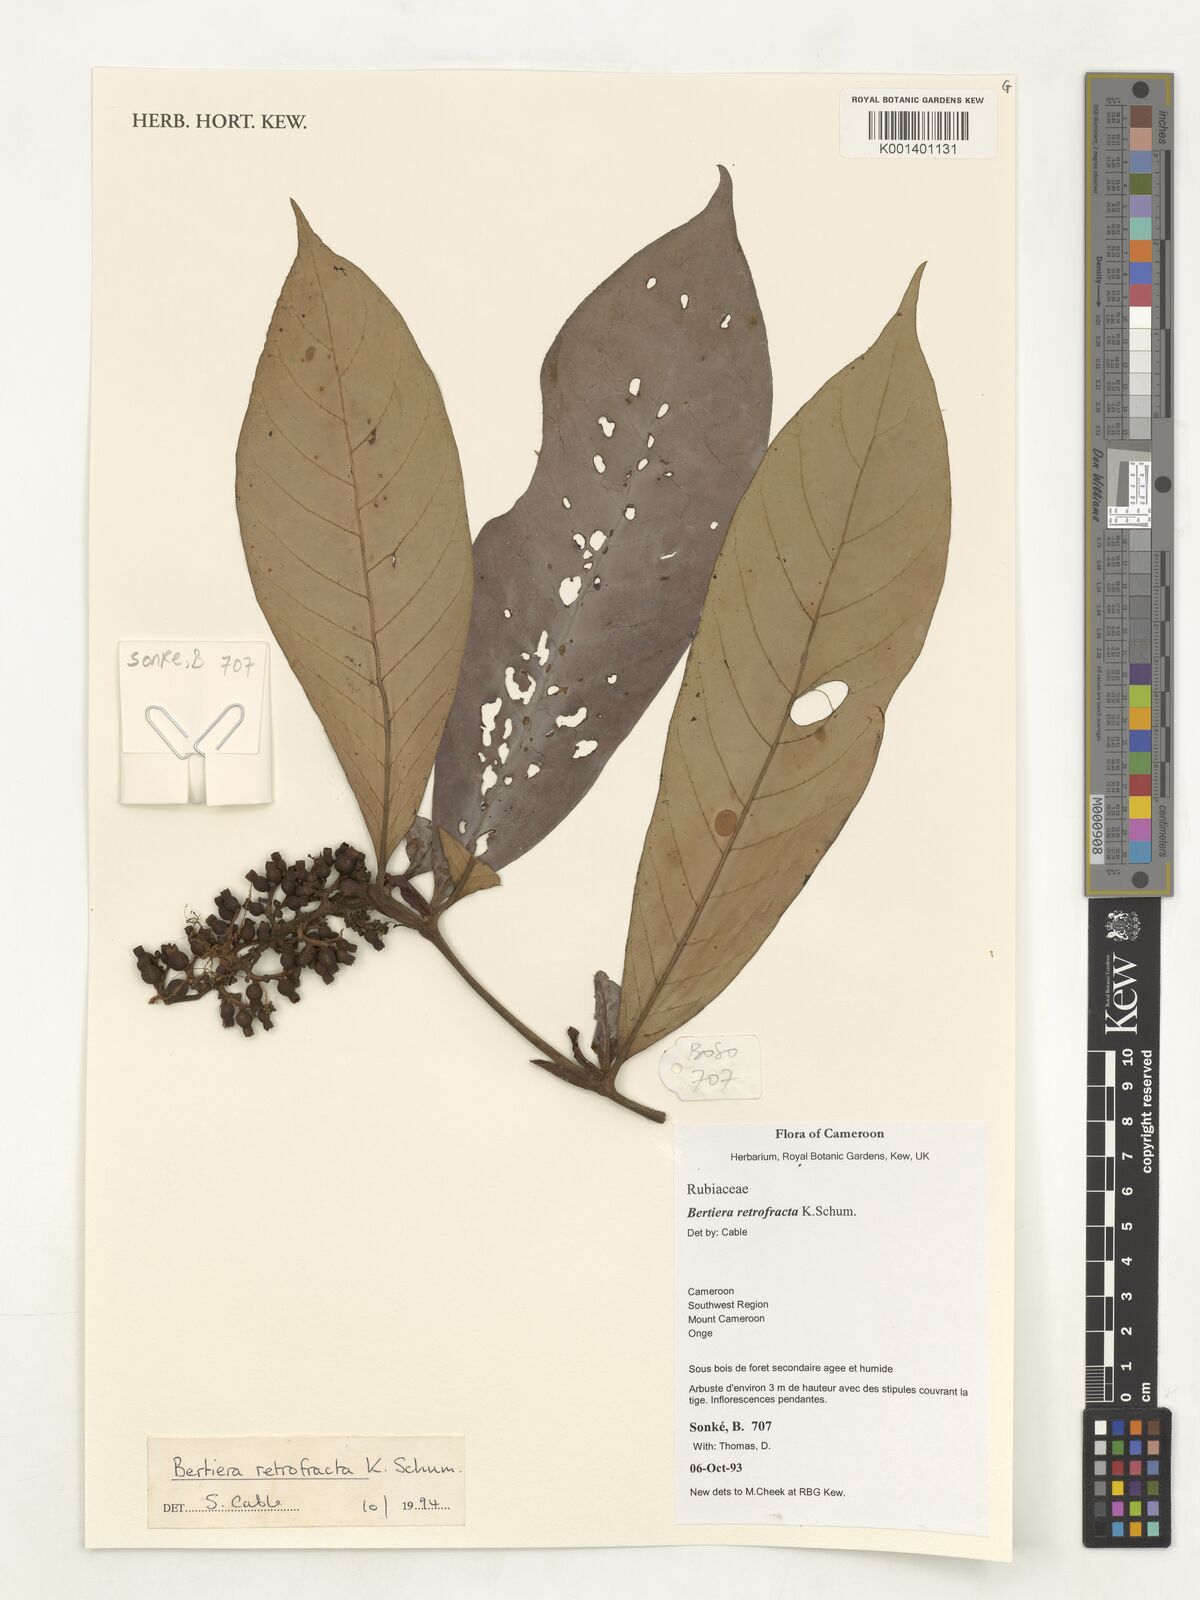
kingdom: Plantae
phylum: Tracheophyta
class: Magnoliopsida
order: Gentianales
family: Rubiaceae
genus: Bertiera
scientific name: Bertiera retrofracta
